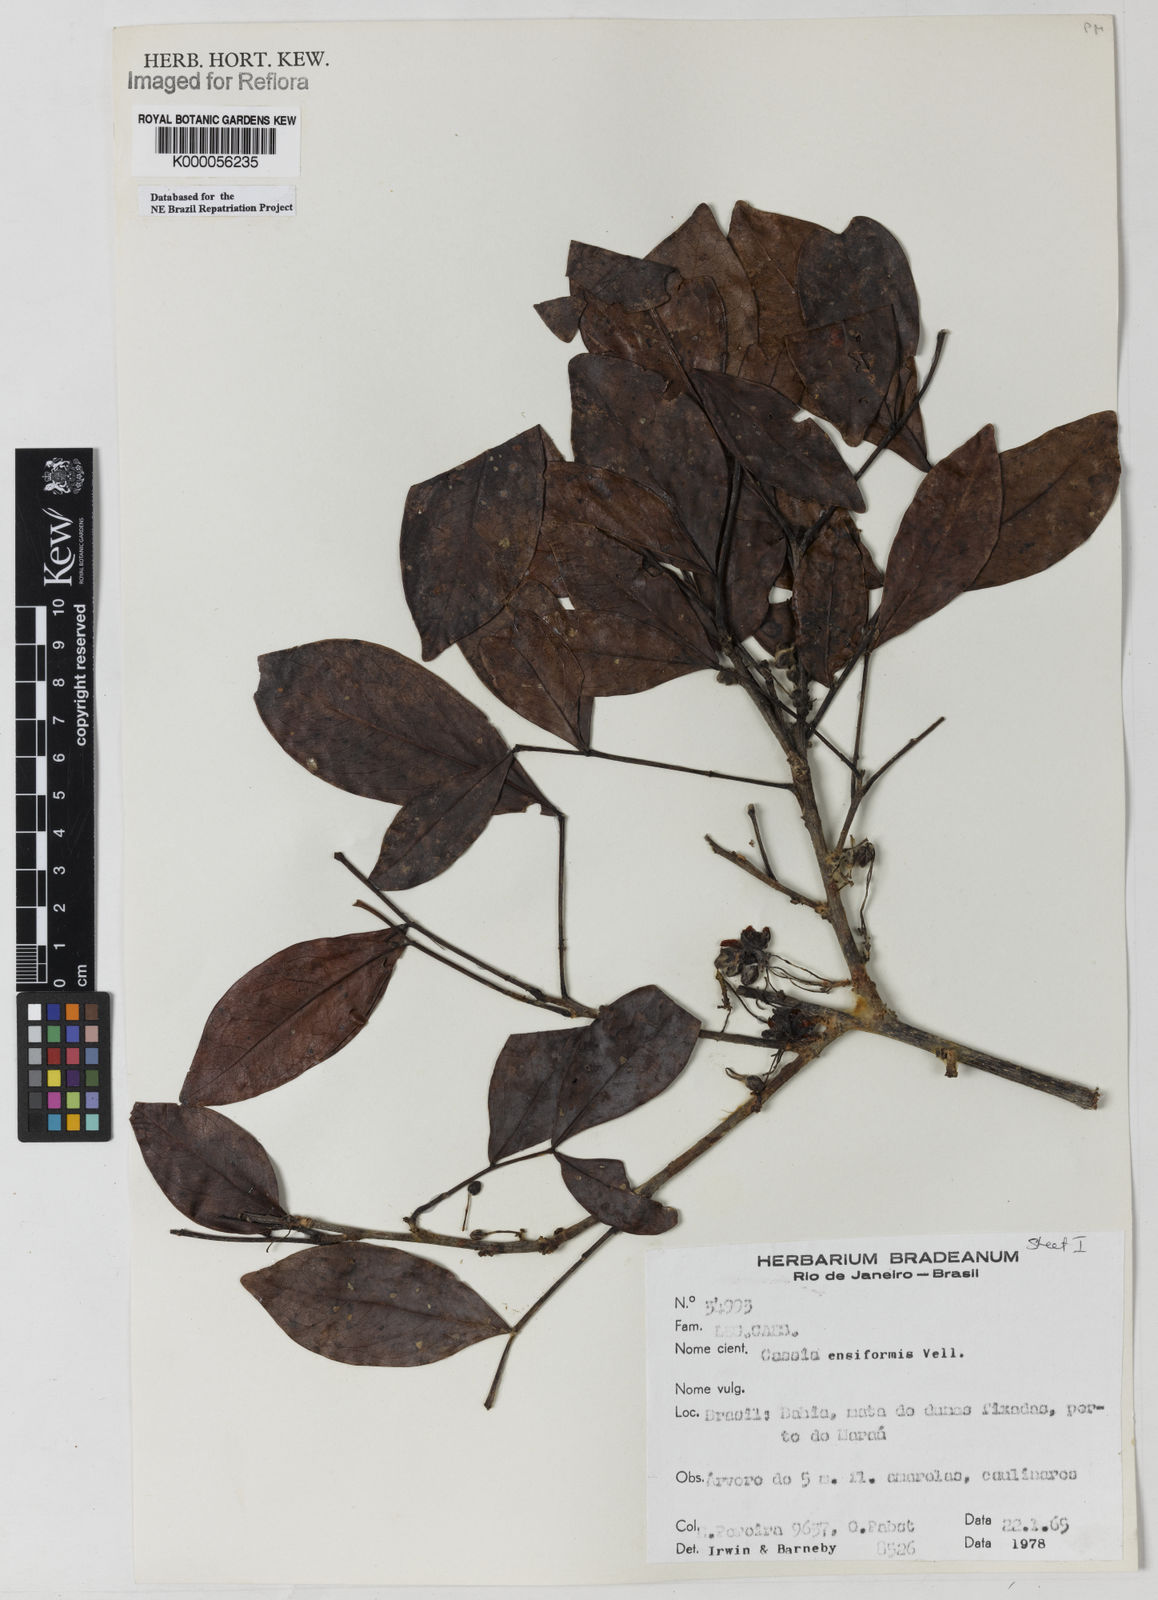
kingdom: Plantae
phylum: Tracheophyta
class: Magnoliopsida
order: Fabales
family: Fabaceae
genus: Chamaecrista
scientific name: Chamaecrista ensiformis
